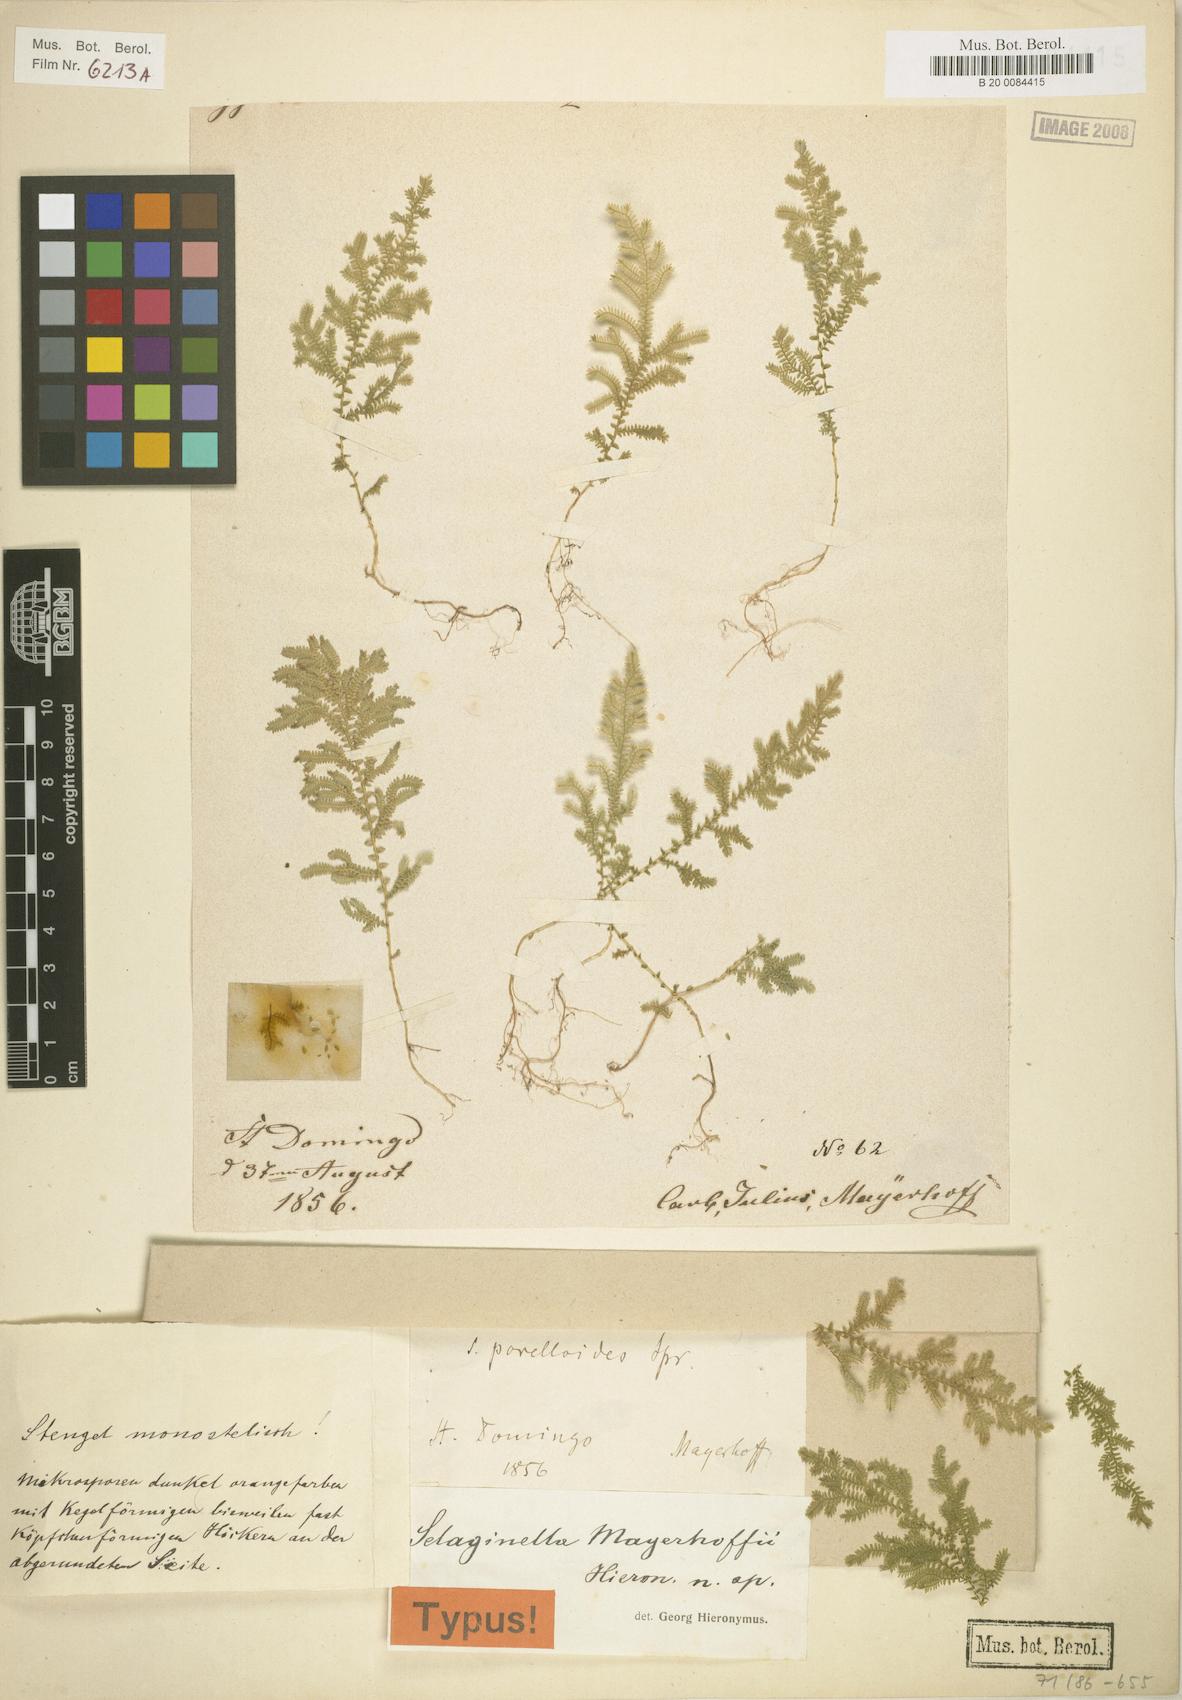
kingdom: Plantae
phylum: Tracheophyta
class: Lycopodiopsida
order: Selaginellales
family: Selaginellaceae
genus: Selaginella
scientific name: Selaginella flabellum
